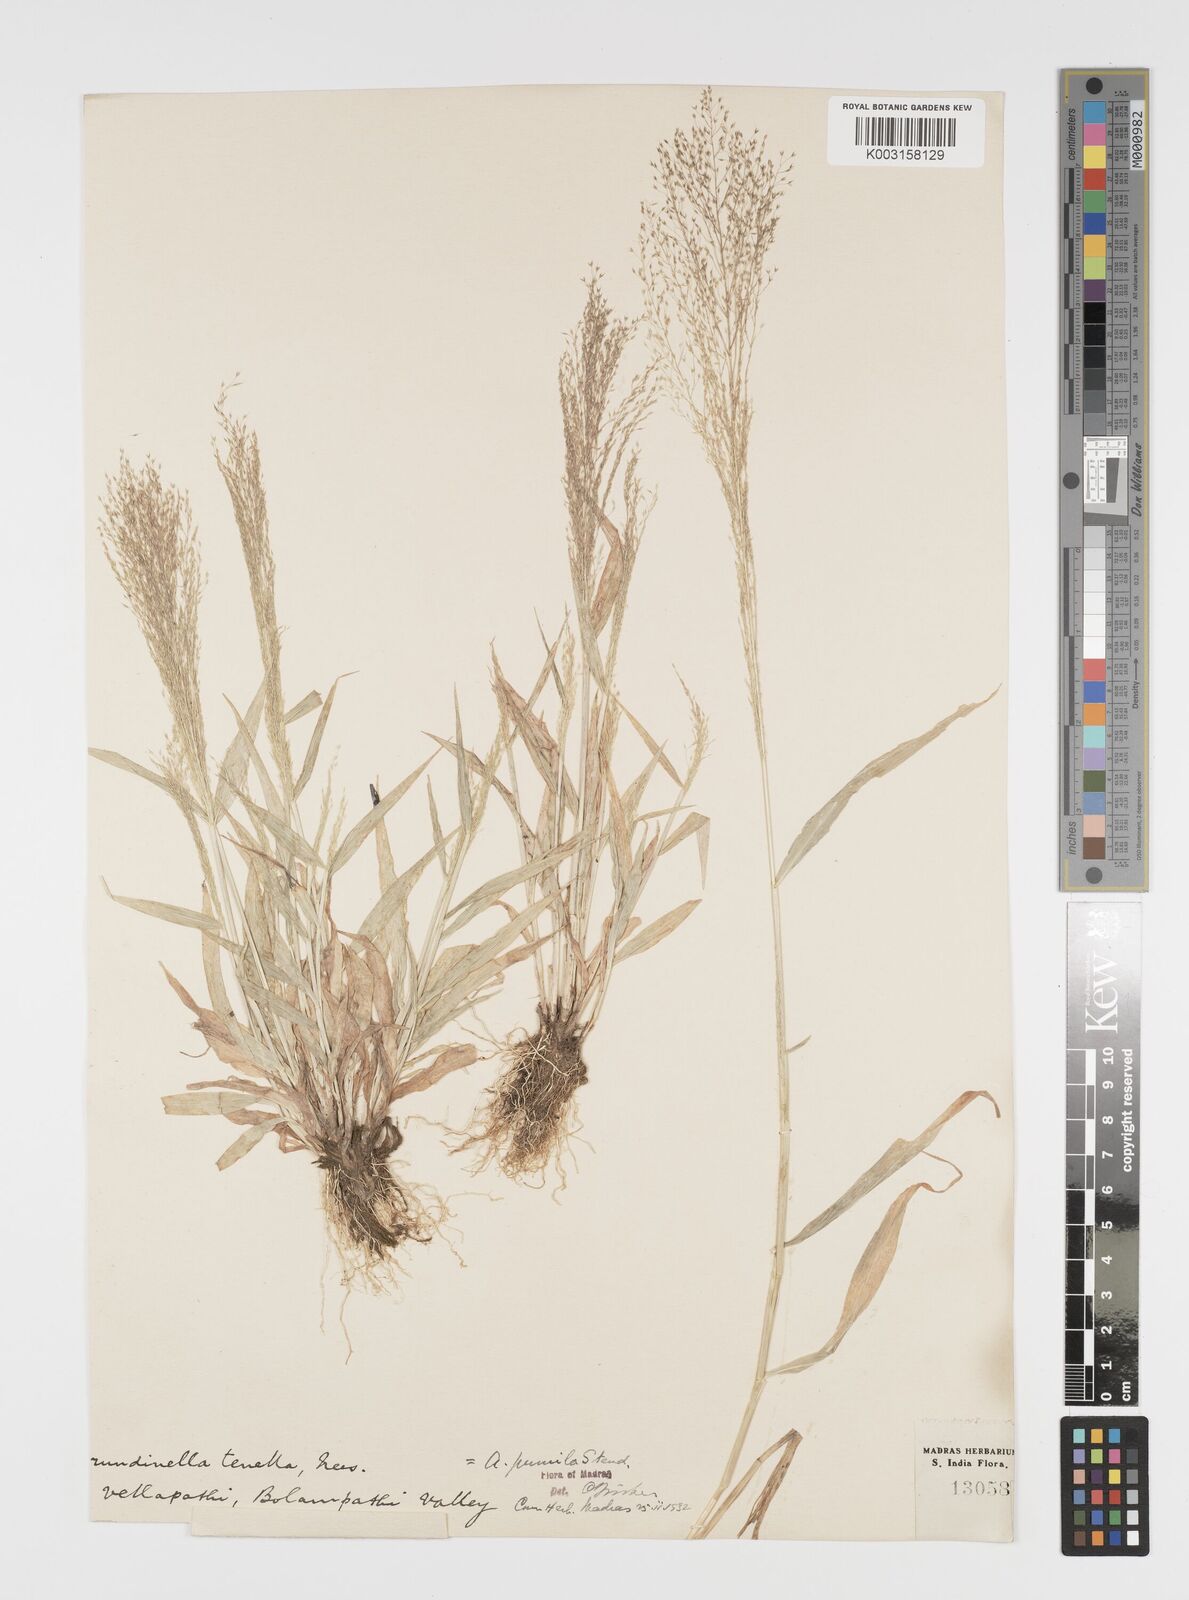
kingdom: Plantae
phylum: Tracheophyta
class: Liliopsida
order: Poales
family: Poaceae
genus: Arundinella
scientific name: Arundinella pumila
